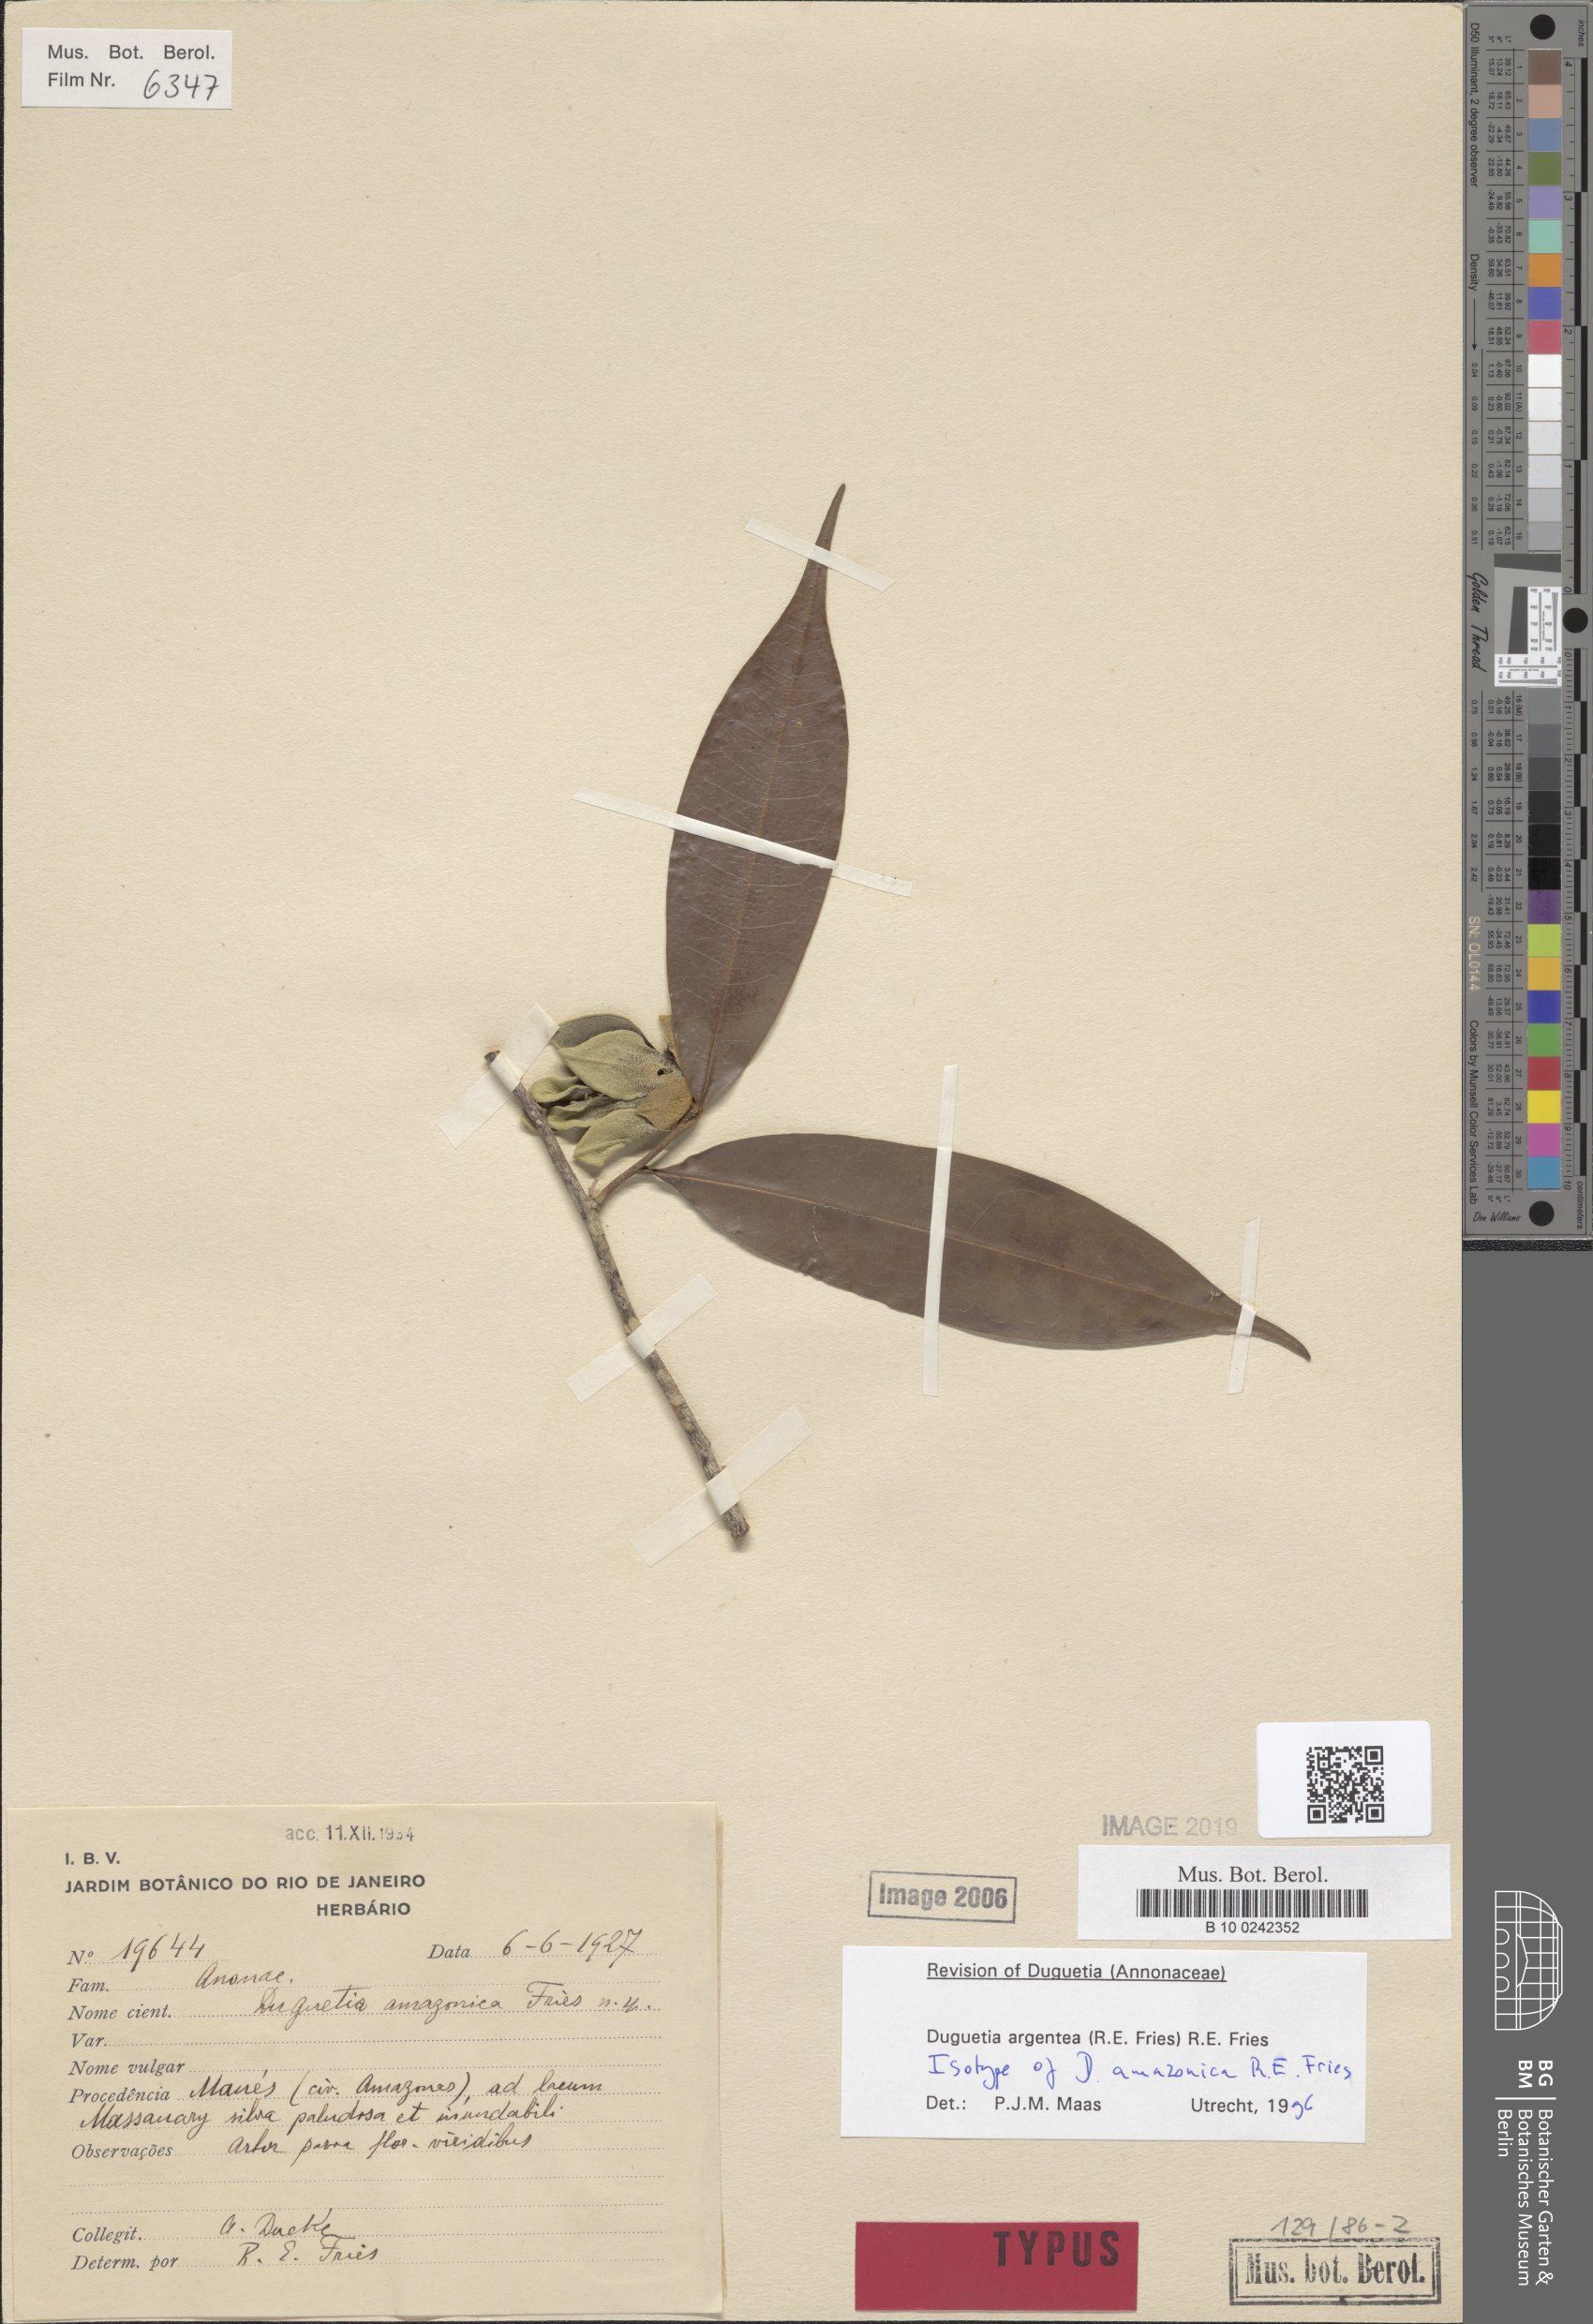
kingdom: Plantae
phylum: Tracheophyta
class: Magnoliopsida
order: Magnoliales
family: Annonaceae
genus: Duguetia
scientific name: Duguetia argentea
